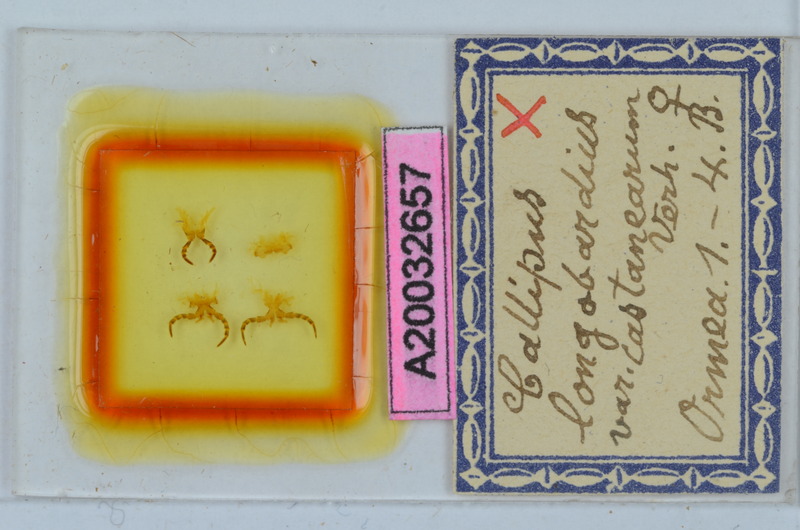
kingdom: Animalia
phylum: Arthropoda
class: Diplopoda
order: Callipodida
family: Callipodidae
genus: Callipus
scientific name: Callipus foetidissimus
